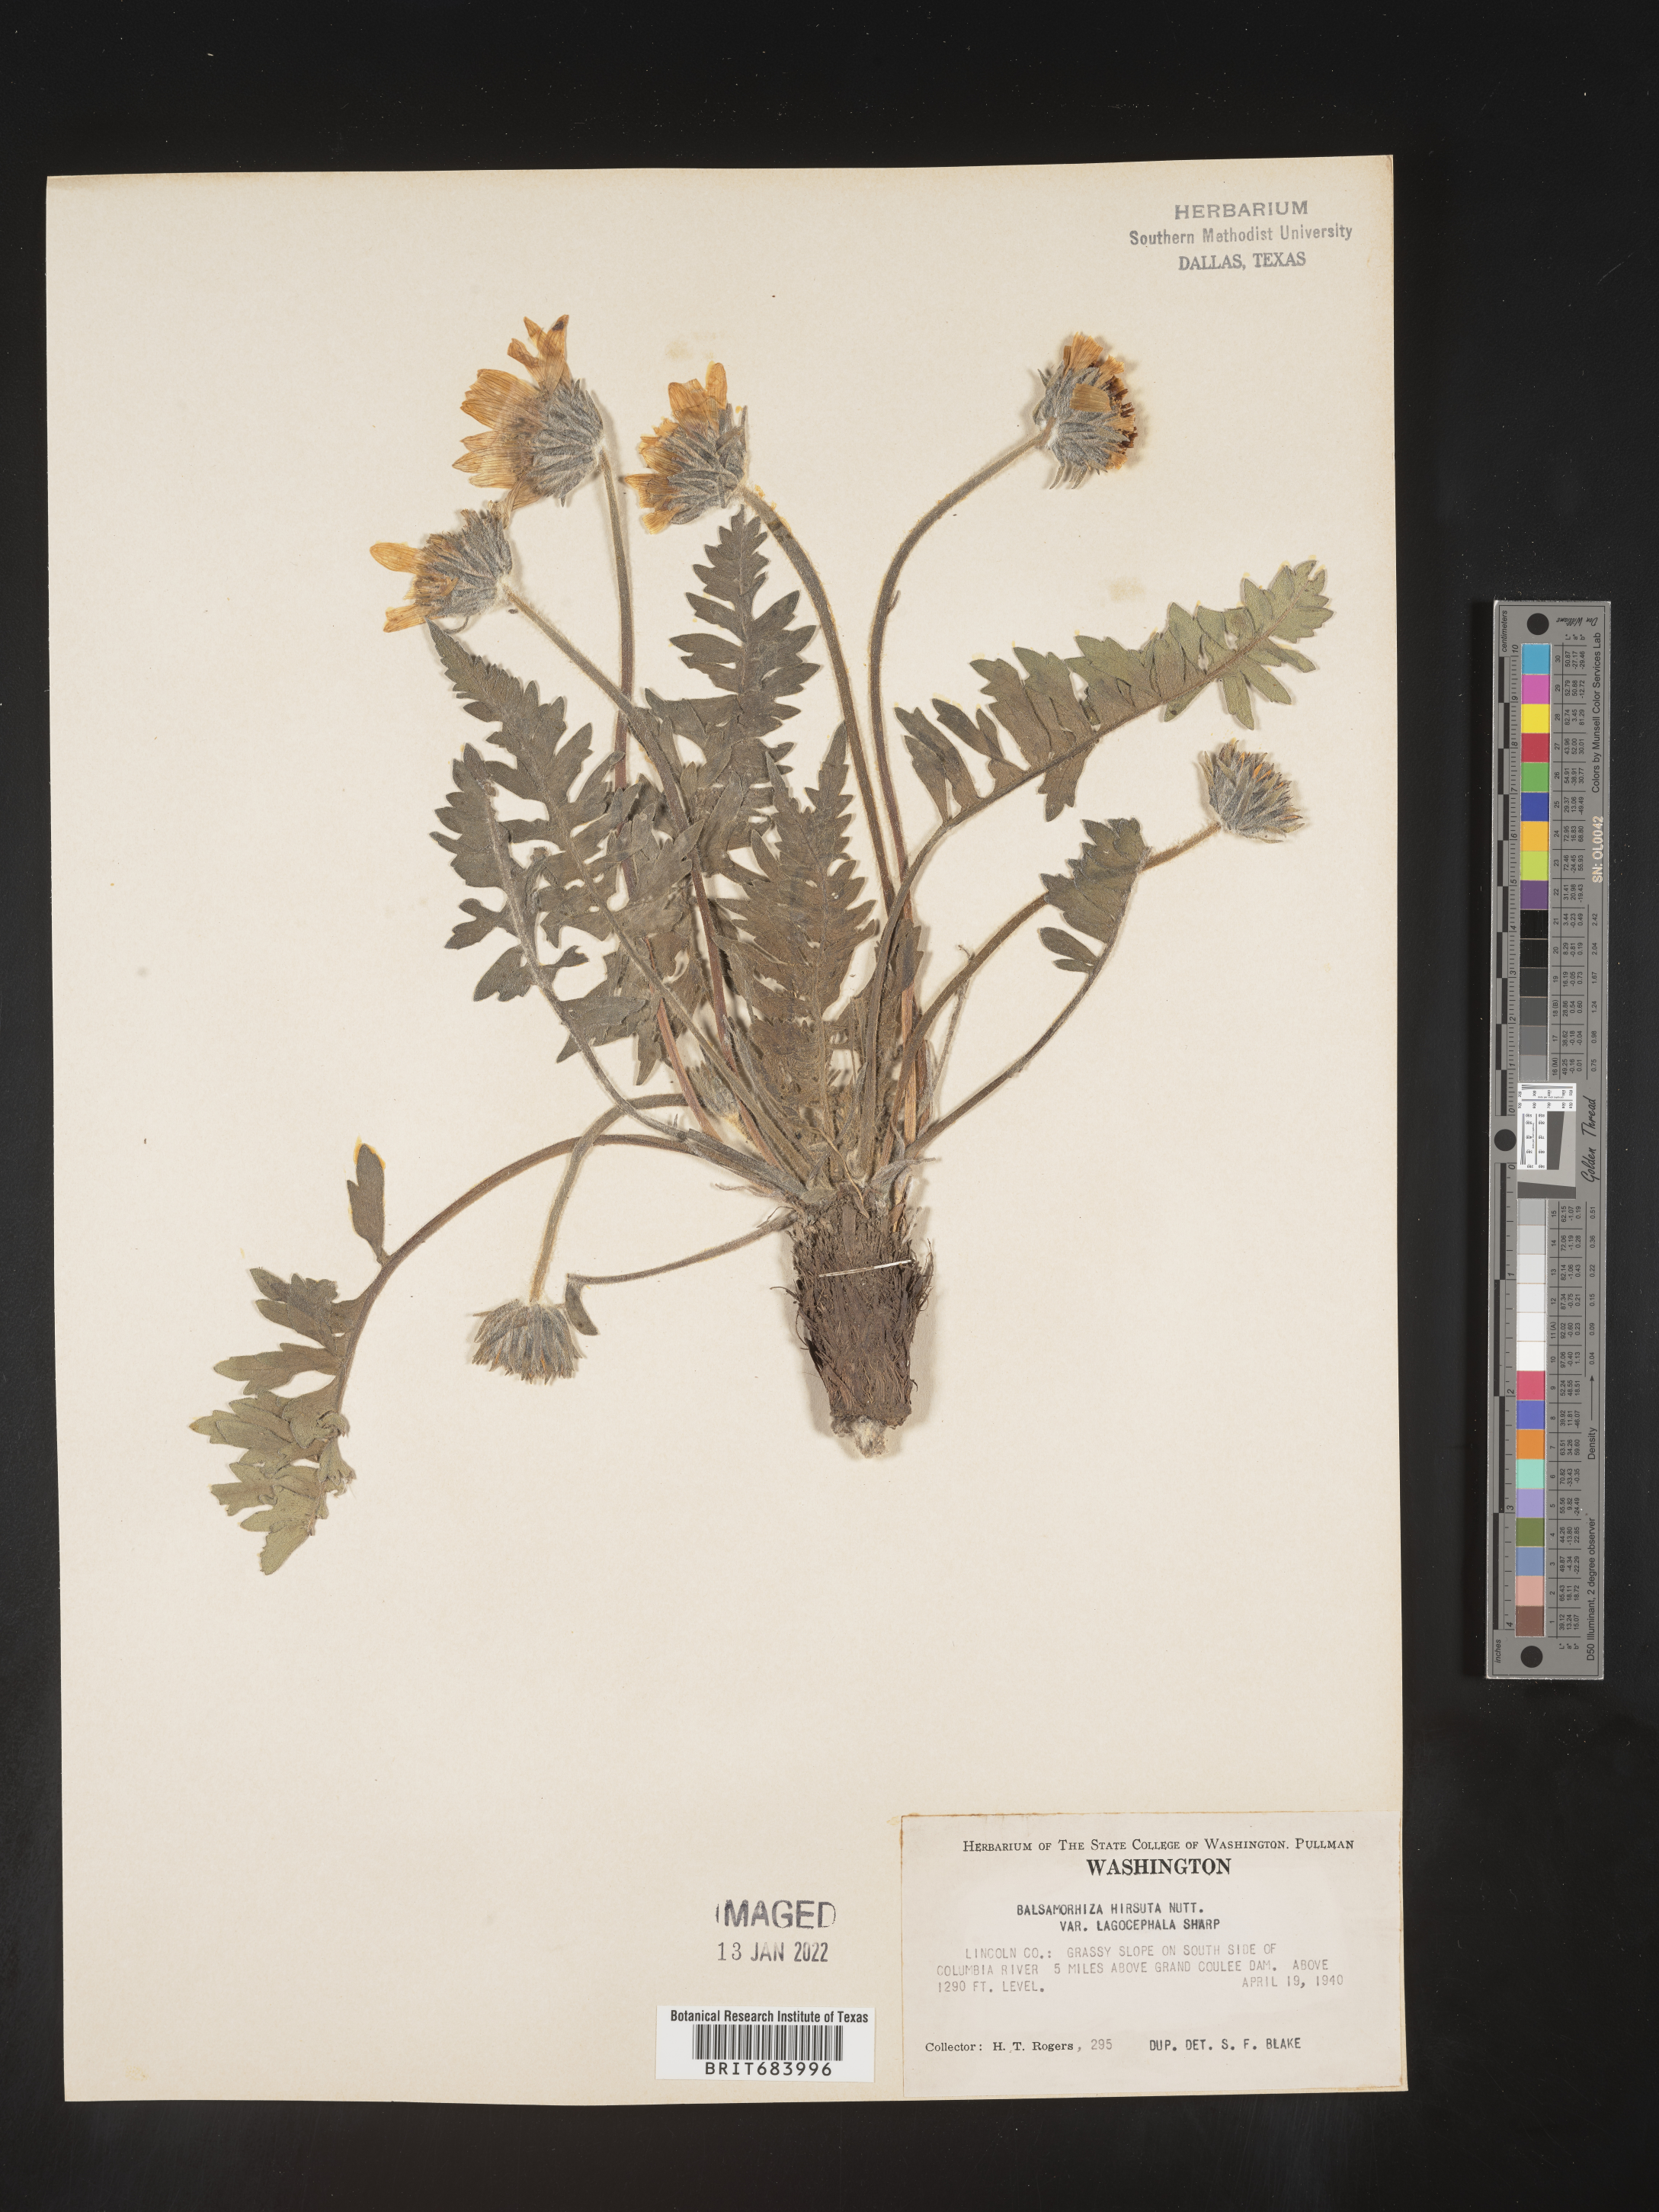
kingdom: Plantae
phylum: Tracheophyta
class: Magnoliopsida
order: Asterales
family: Asteraceae
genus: Balsamorhiza
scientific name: Balsamorhiza hookeri
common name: Hooker's balsamroot
